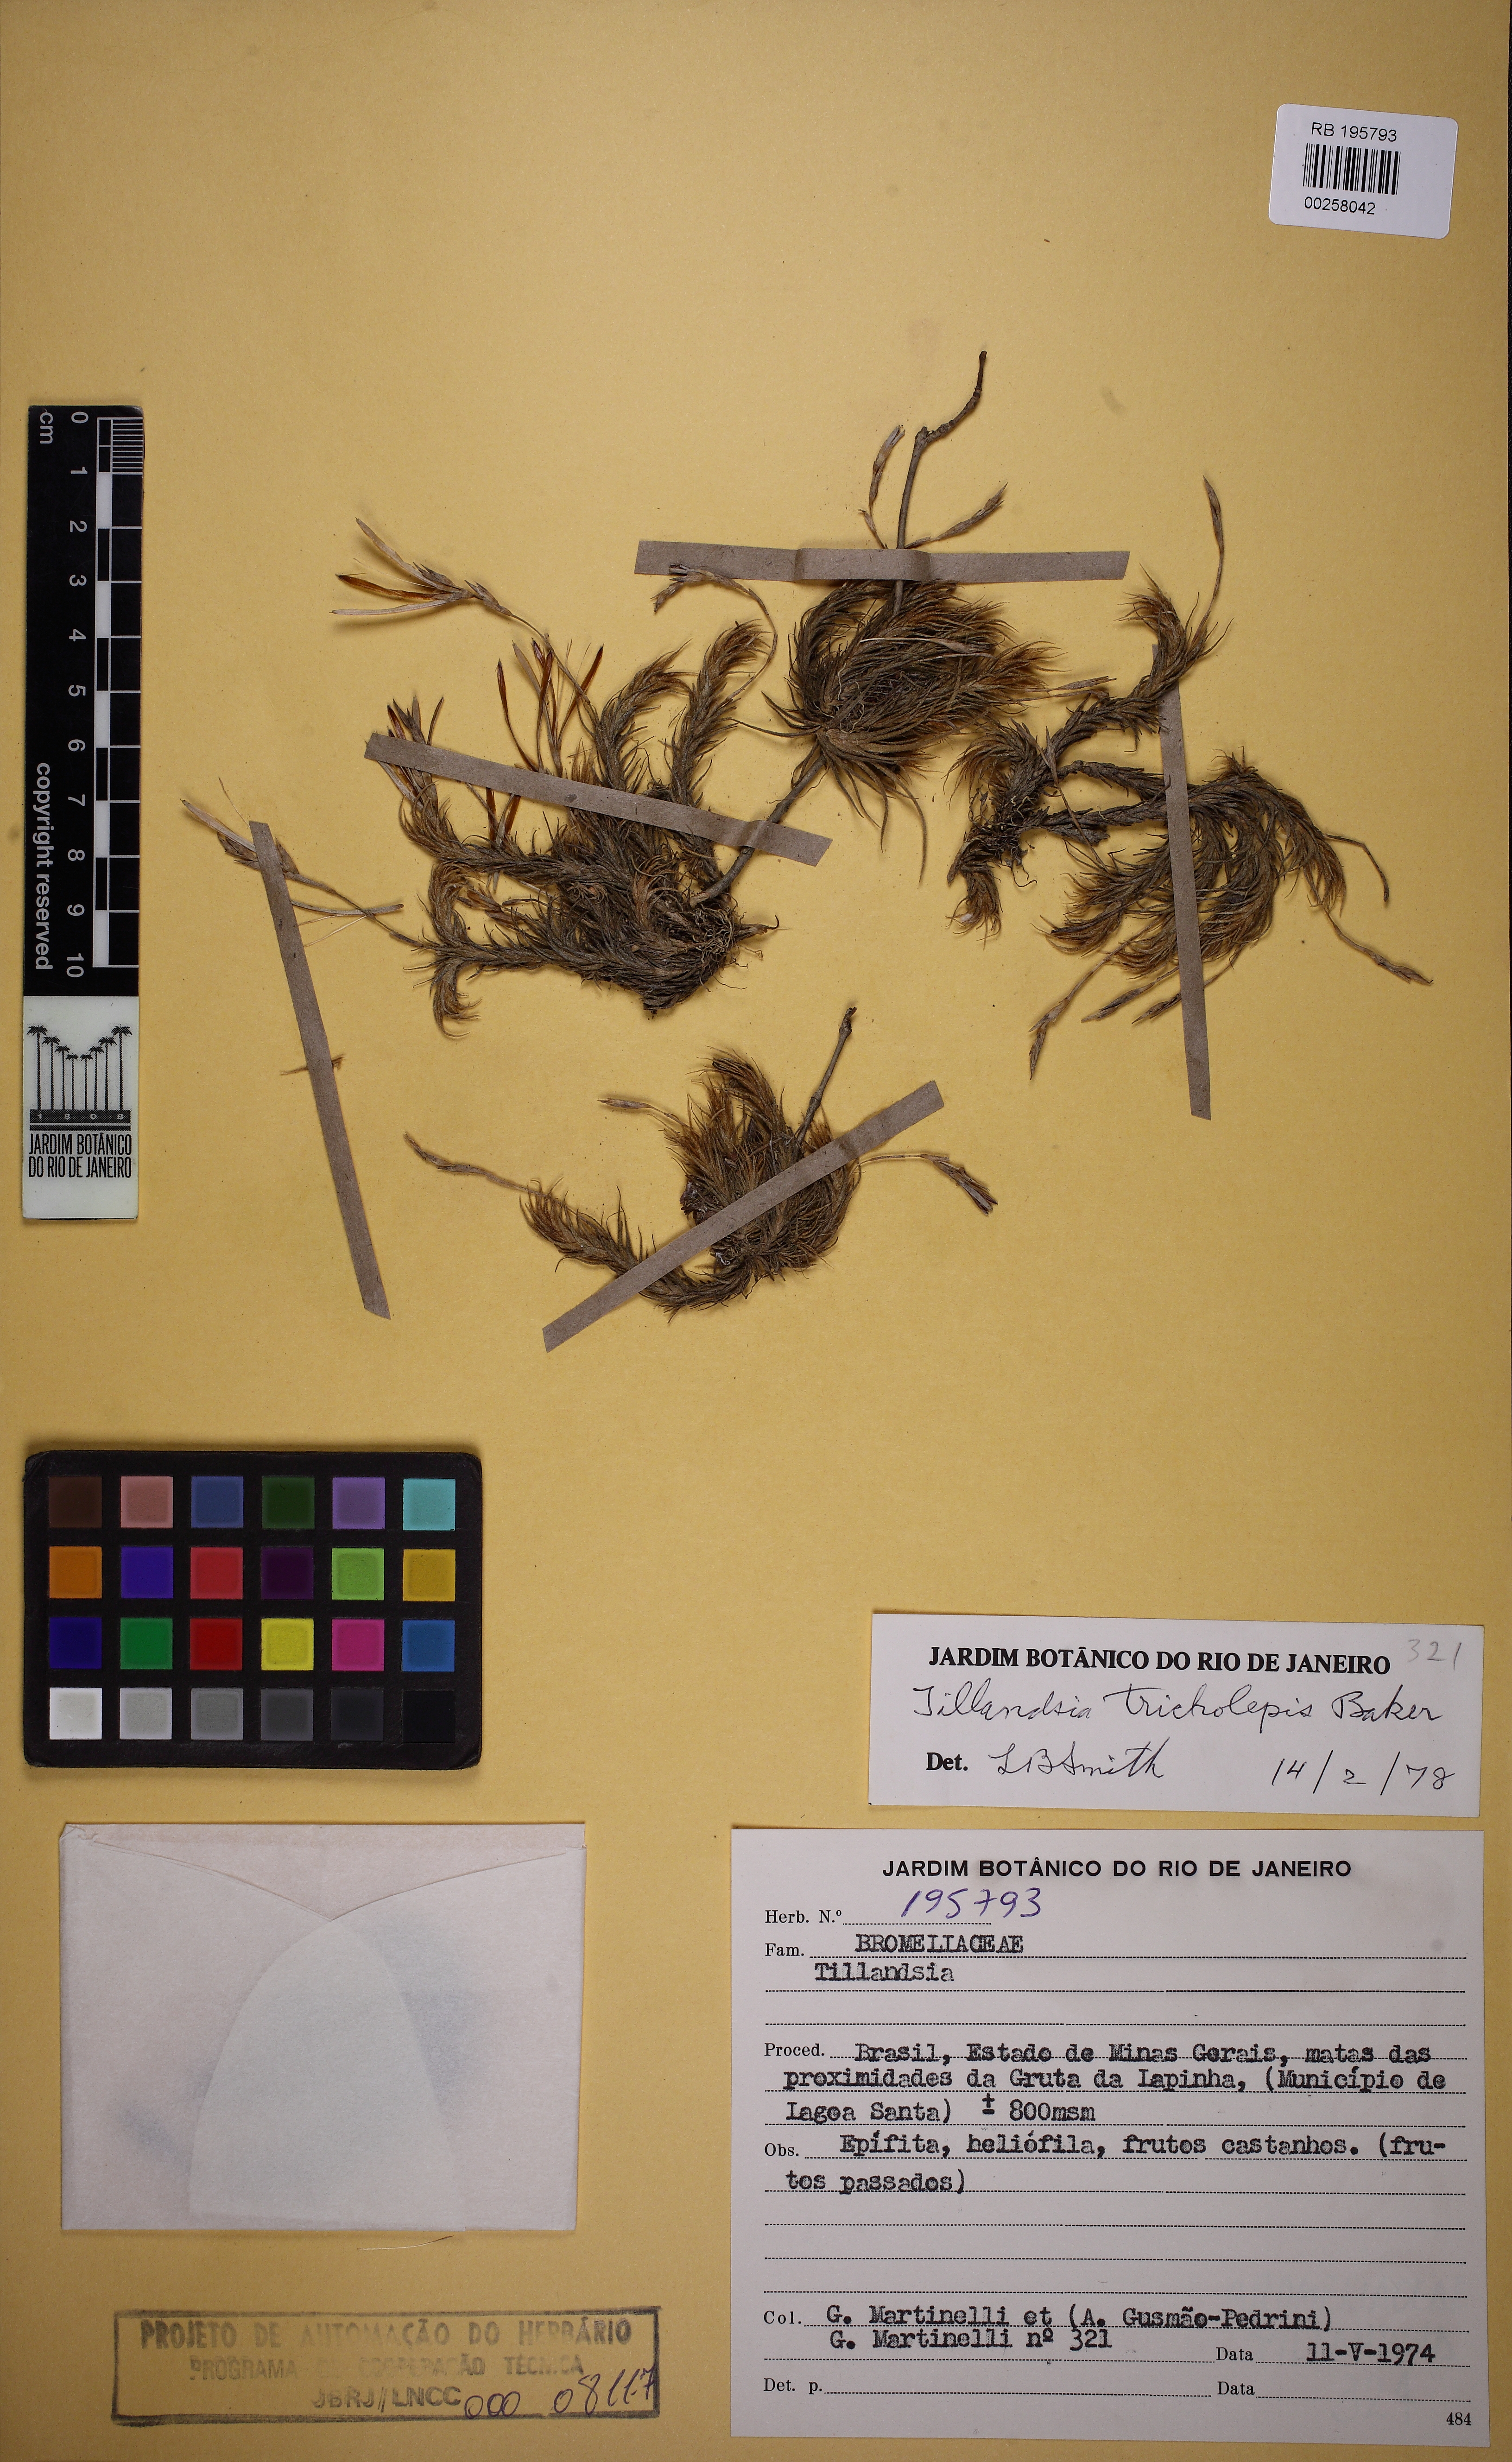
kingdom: Plantae
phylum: Tracheophyta
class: Liliopsida
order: Poales
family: Bromeliaceae
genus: Tillandsia
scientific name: Tillandsia tricholepis
